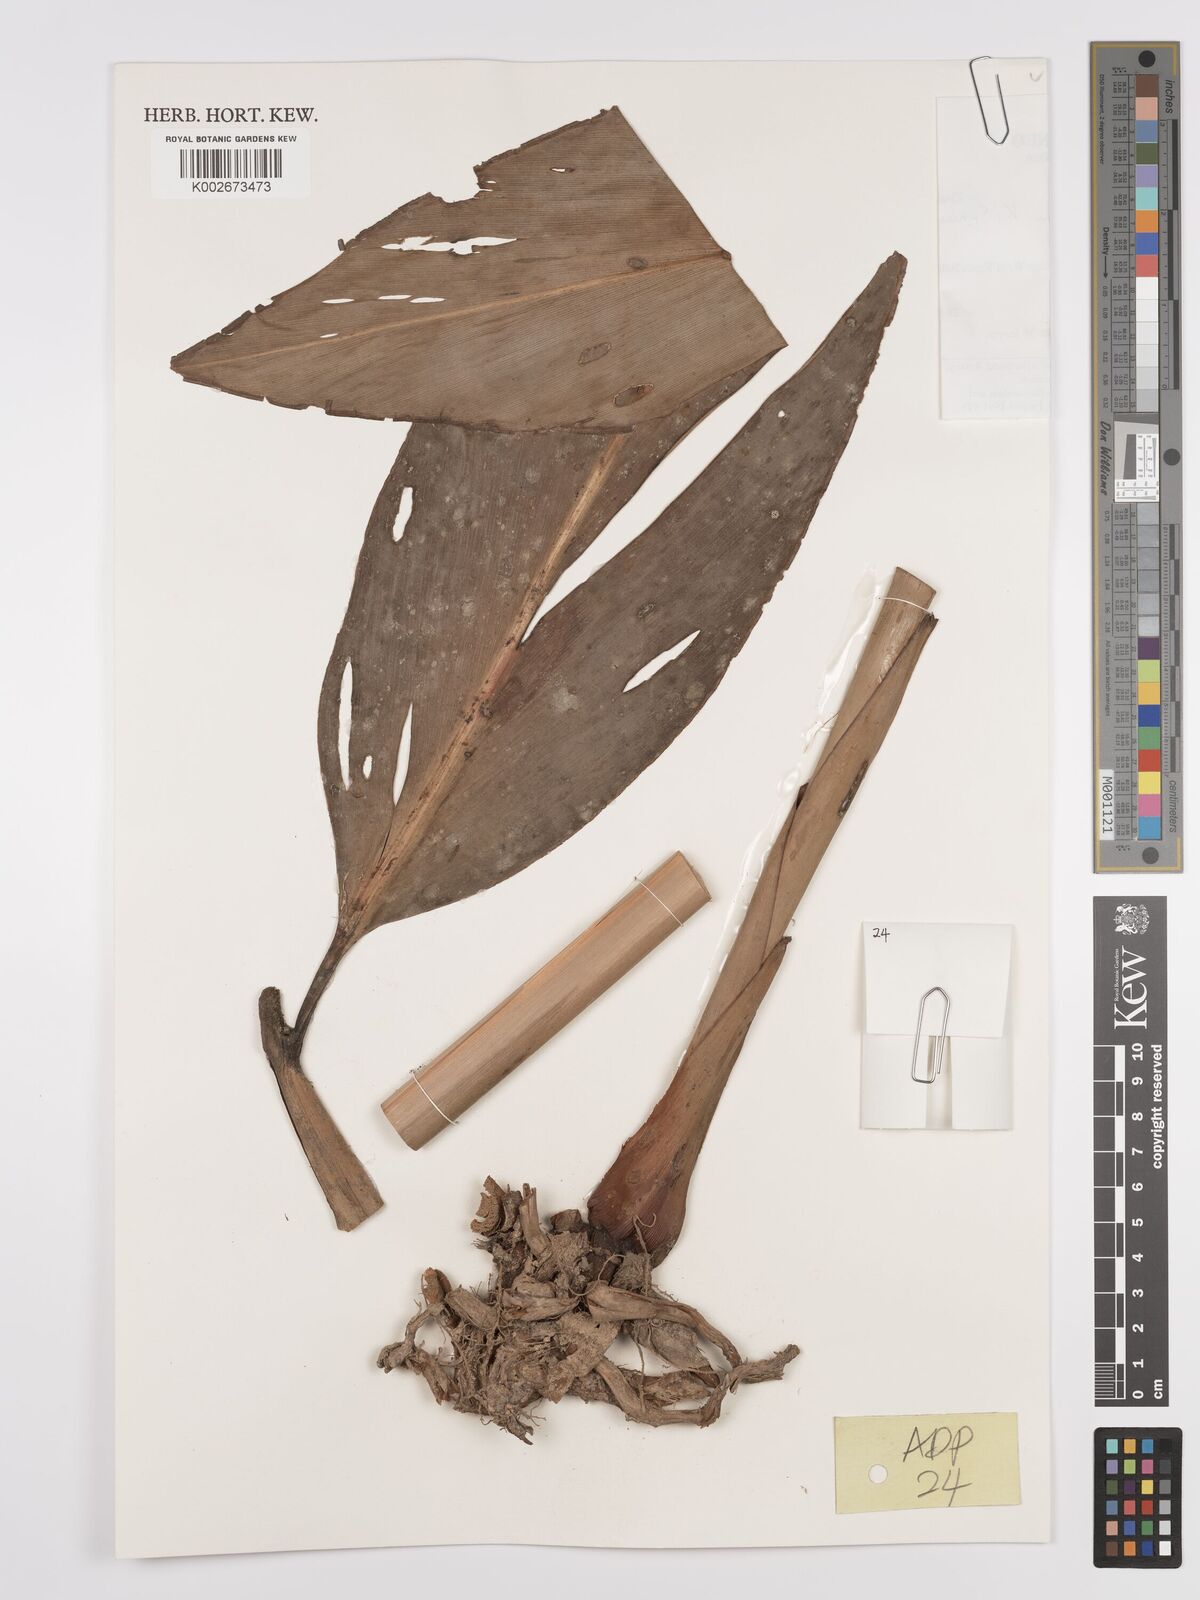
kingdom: Plantae
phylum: Tracheophyta
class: Liliopsida
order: Zingiberales
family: Zingiberaceae
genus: Meistera
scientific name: Meistera oligantha
